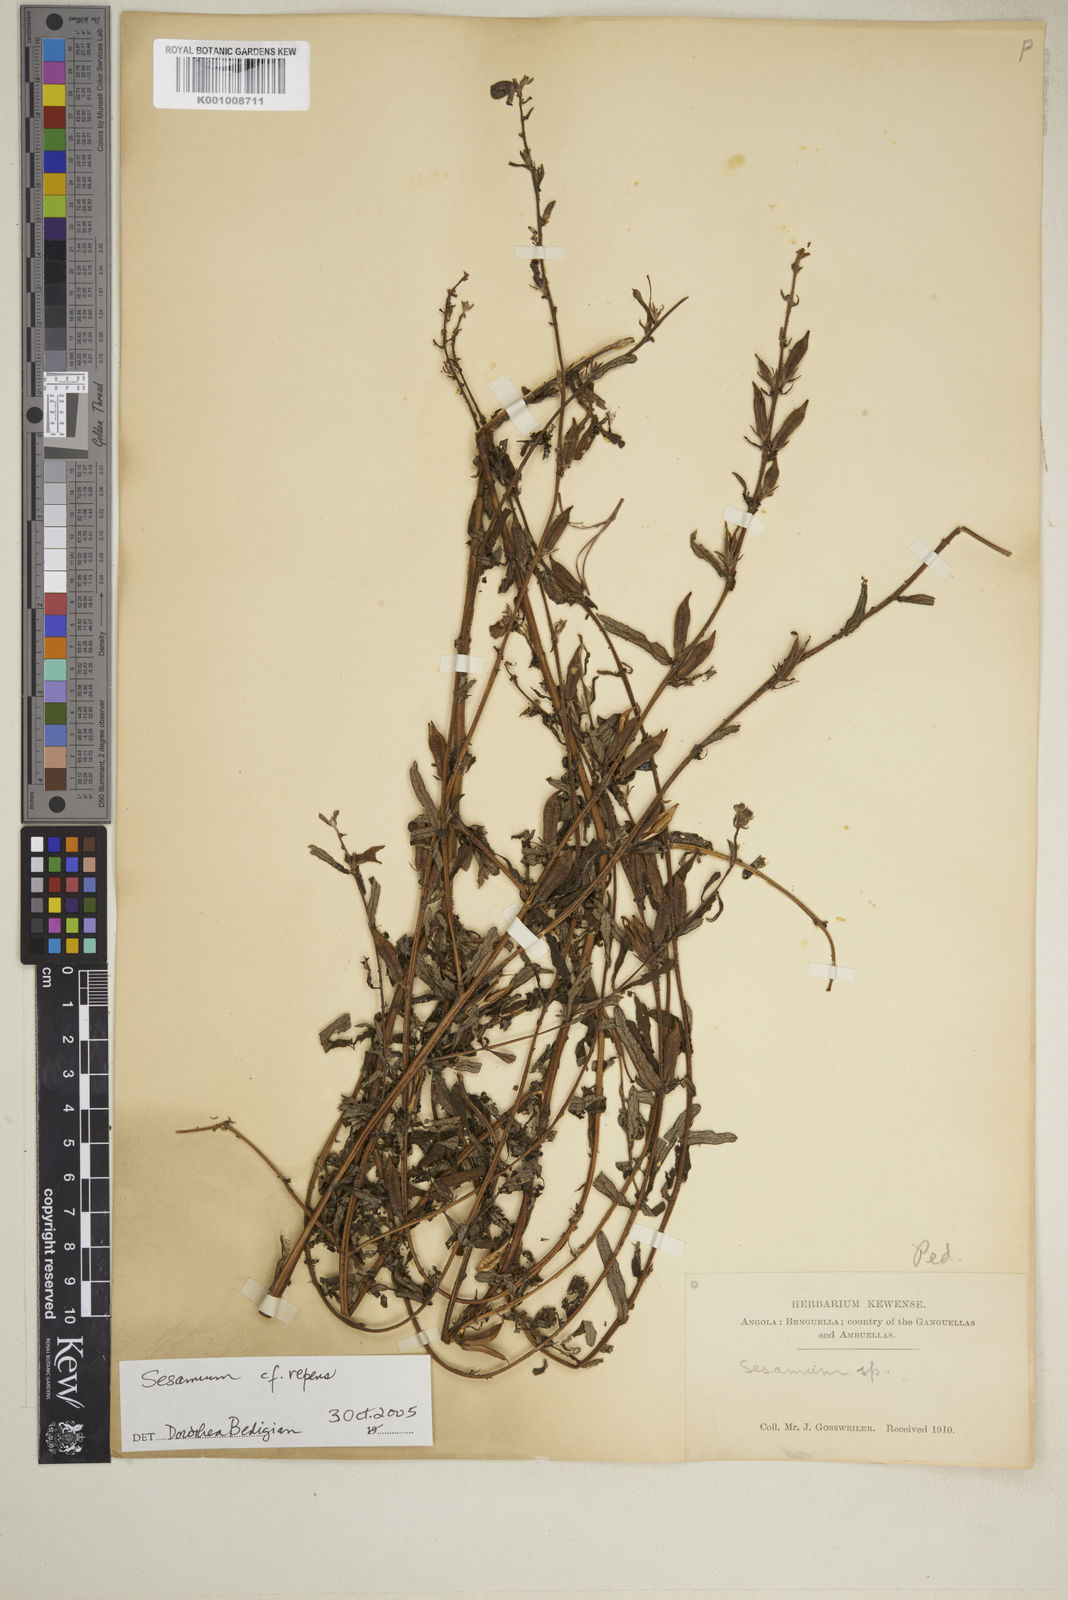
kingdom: Plantae
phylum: Tracheophyta
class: Magnoliopsida
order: Lamiales
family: Pedaliaceae
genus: Sesamum
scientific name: Sesamum calycinum
